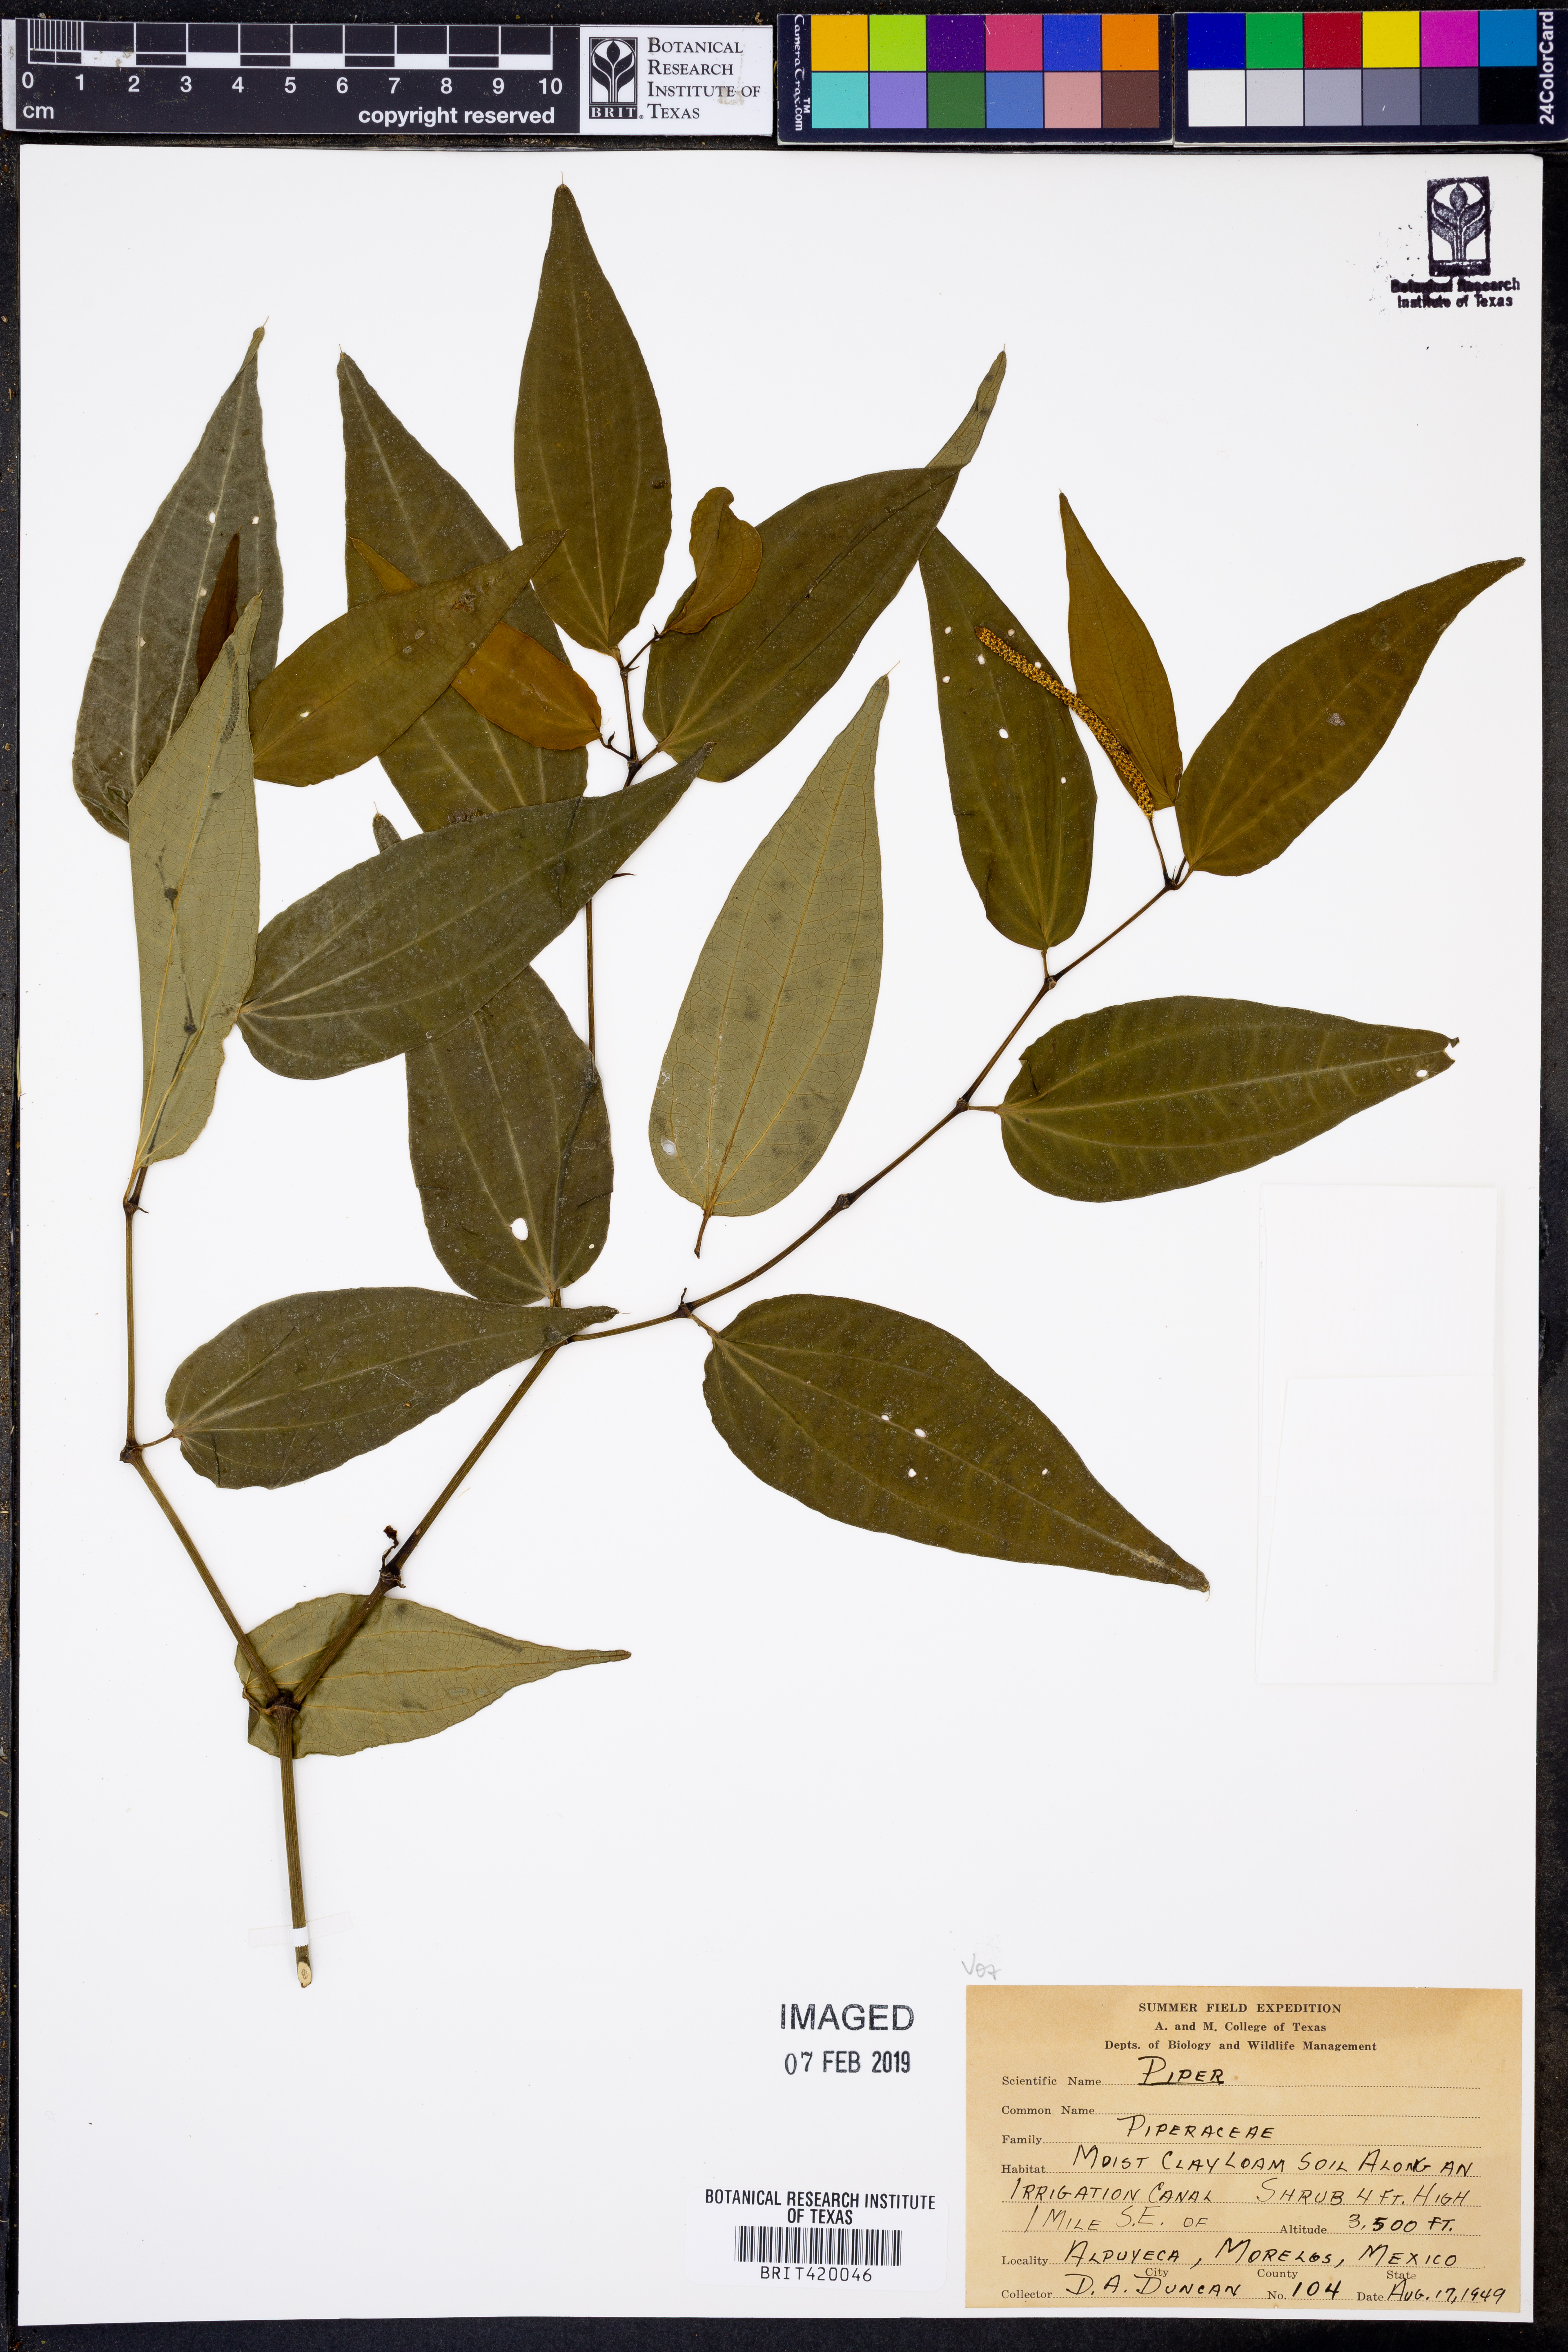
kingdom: Plantae
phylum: Tracheophyta
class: Magnoliopsida
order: Piperales
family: Piperaceae
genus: Piper
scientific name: Piper
